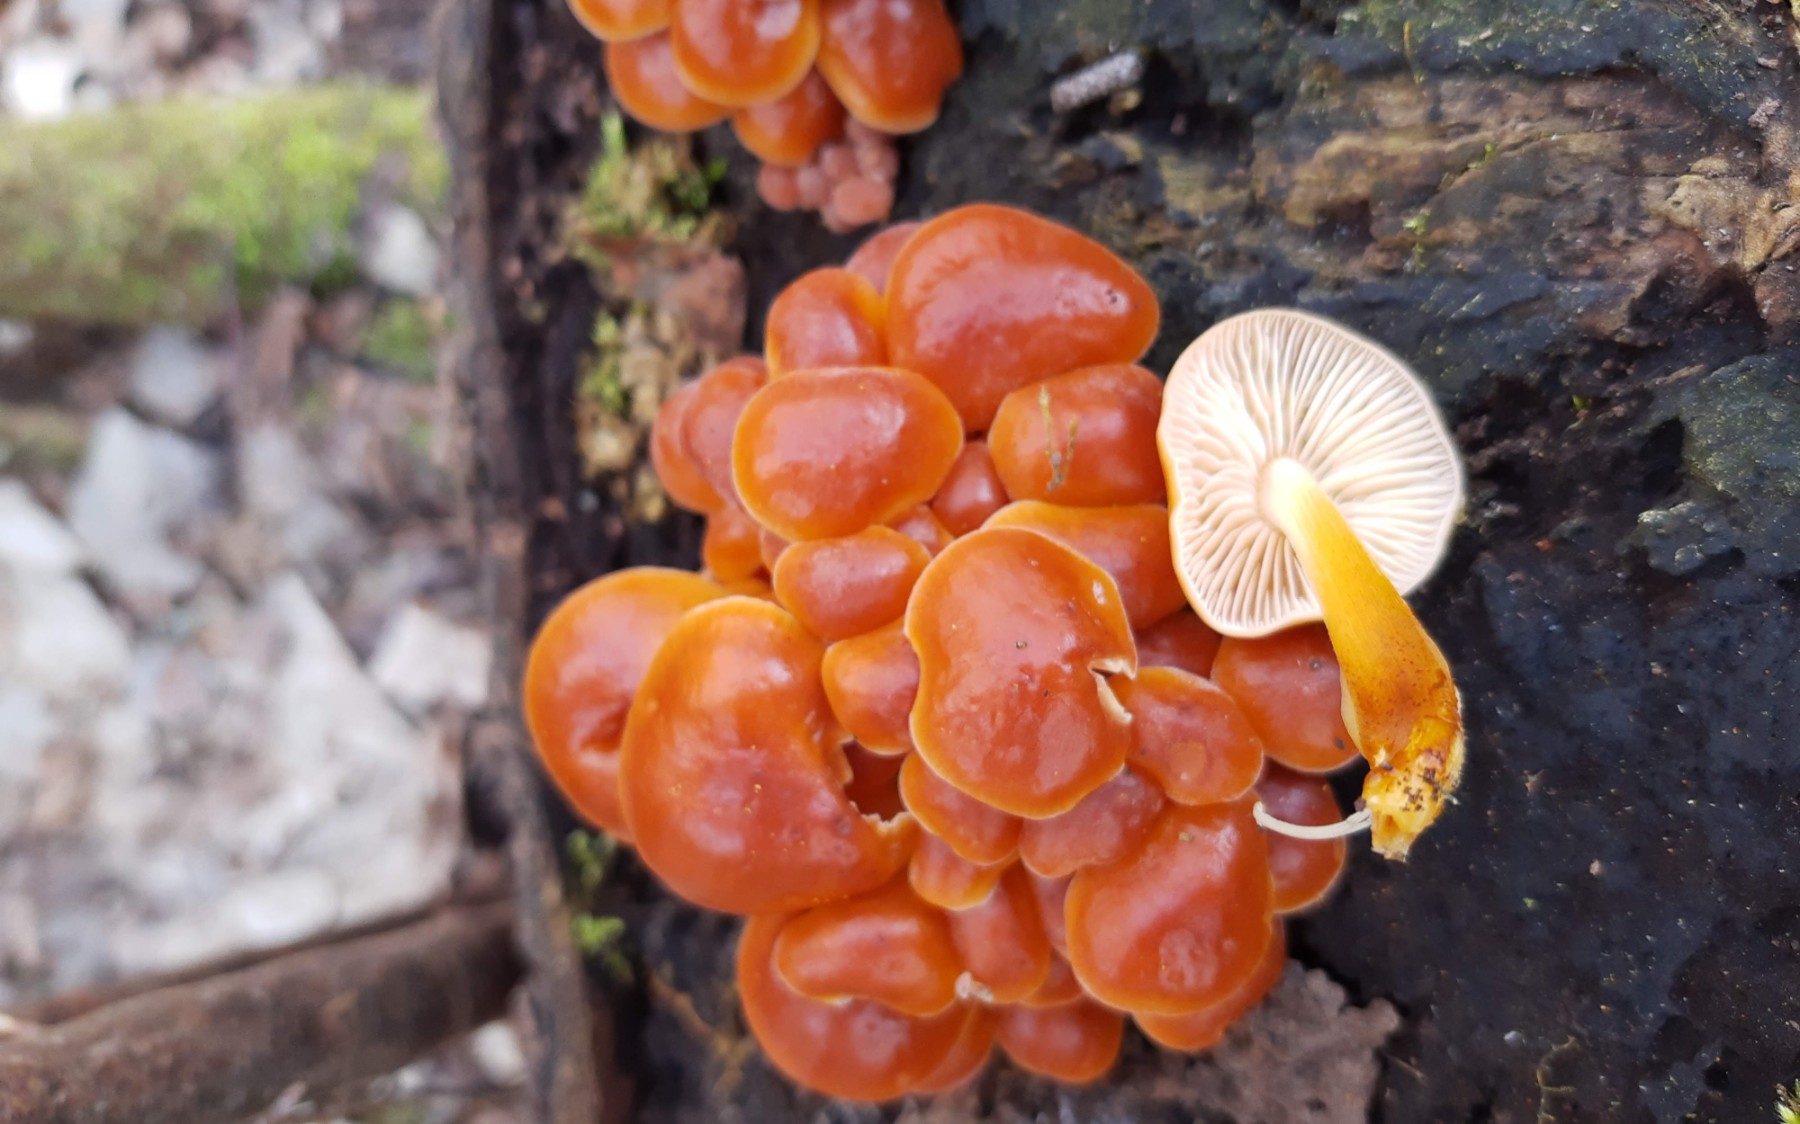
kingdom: Fungi
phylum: Basidiomycota
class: Agaricomycetes
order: Agaricales
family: Physalacriaceae
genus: Flammulina
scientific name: Flammulina velutipes
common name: gul fløjlsfod
